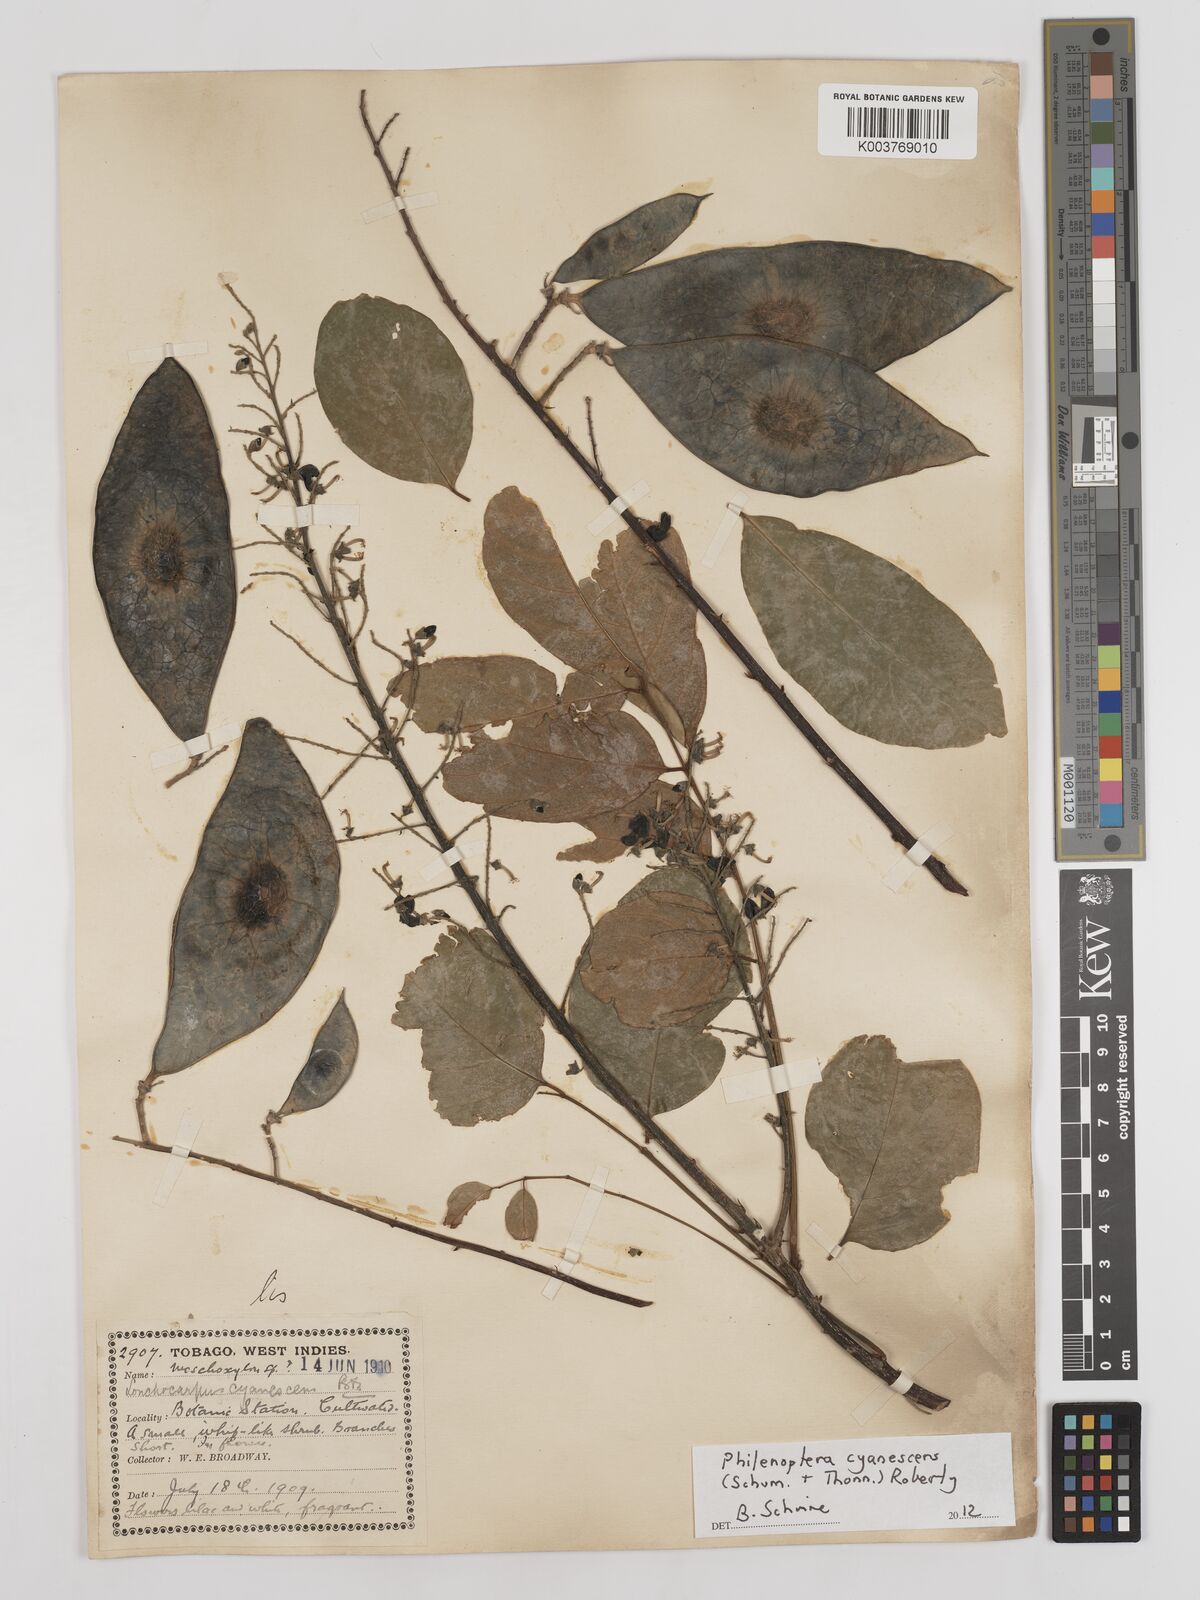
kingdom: Plantae
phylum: Tracheophyta
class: Magnoliopsida
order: Fabales
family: Fabaceae
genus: Philenoptera
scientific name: Philenoptera cyanescens
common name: West african-indigo
